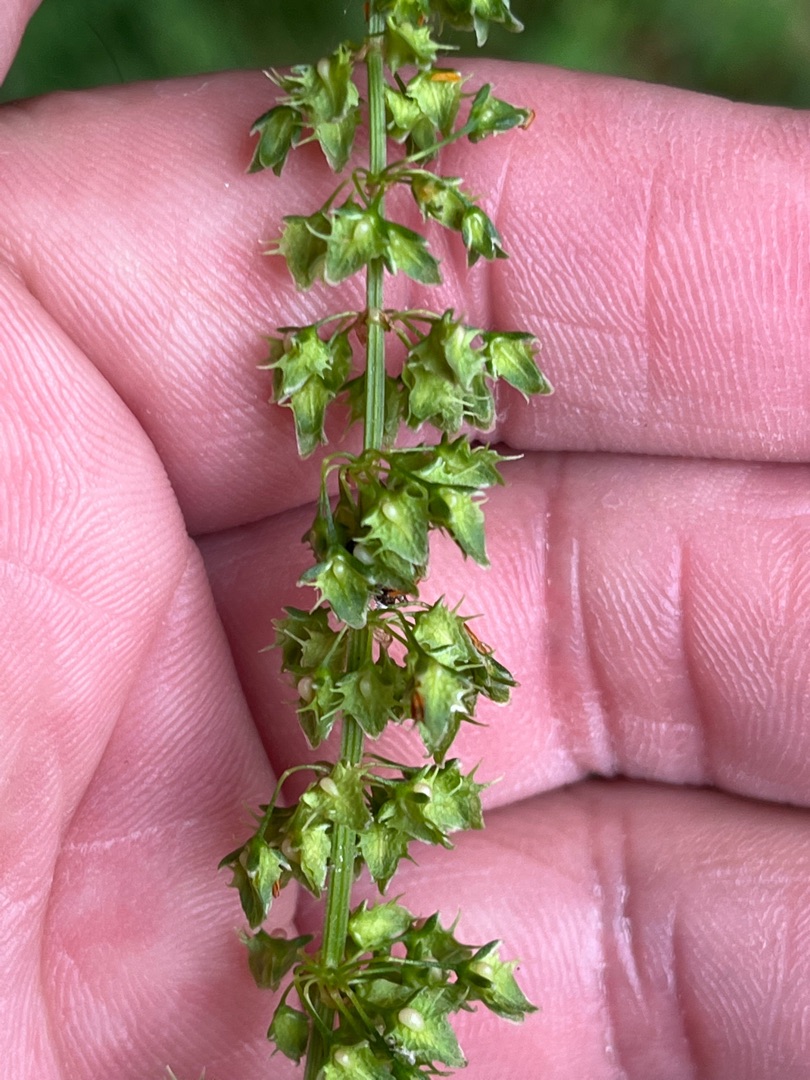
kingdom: Plantae
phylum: Tracheophyta
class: Magnoliopsida
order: Caryophyllales
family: Polygonaceae
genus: Rumex
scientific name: Rumex obtusifolius
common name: Butbladet skræppe
